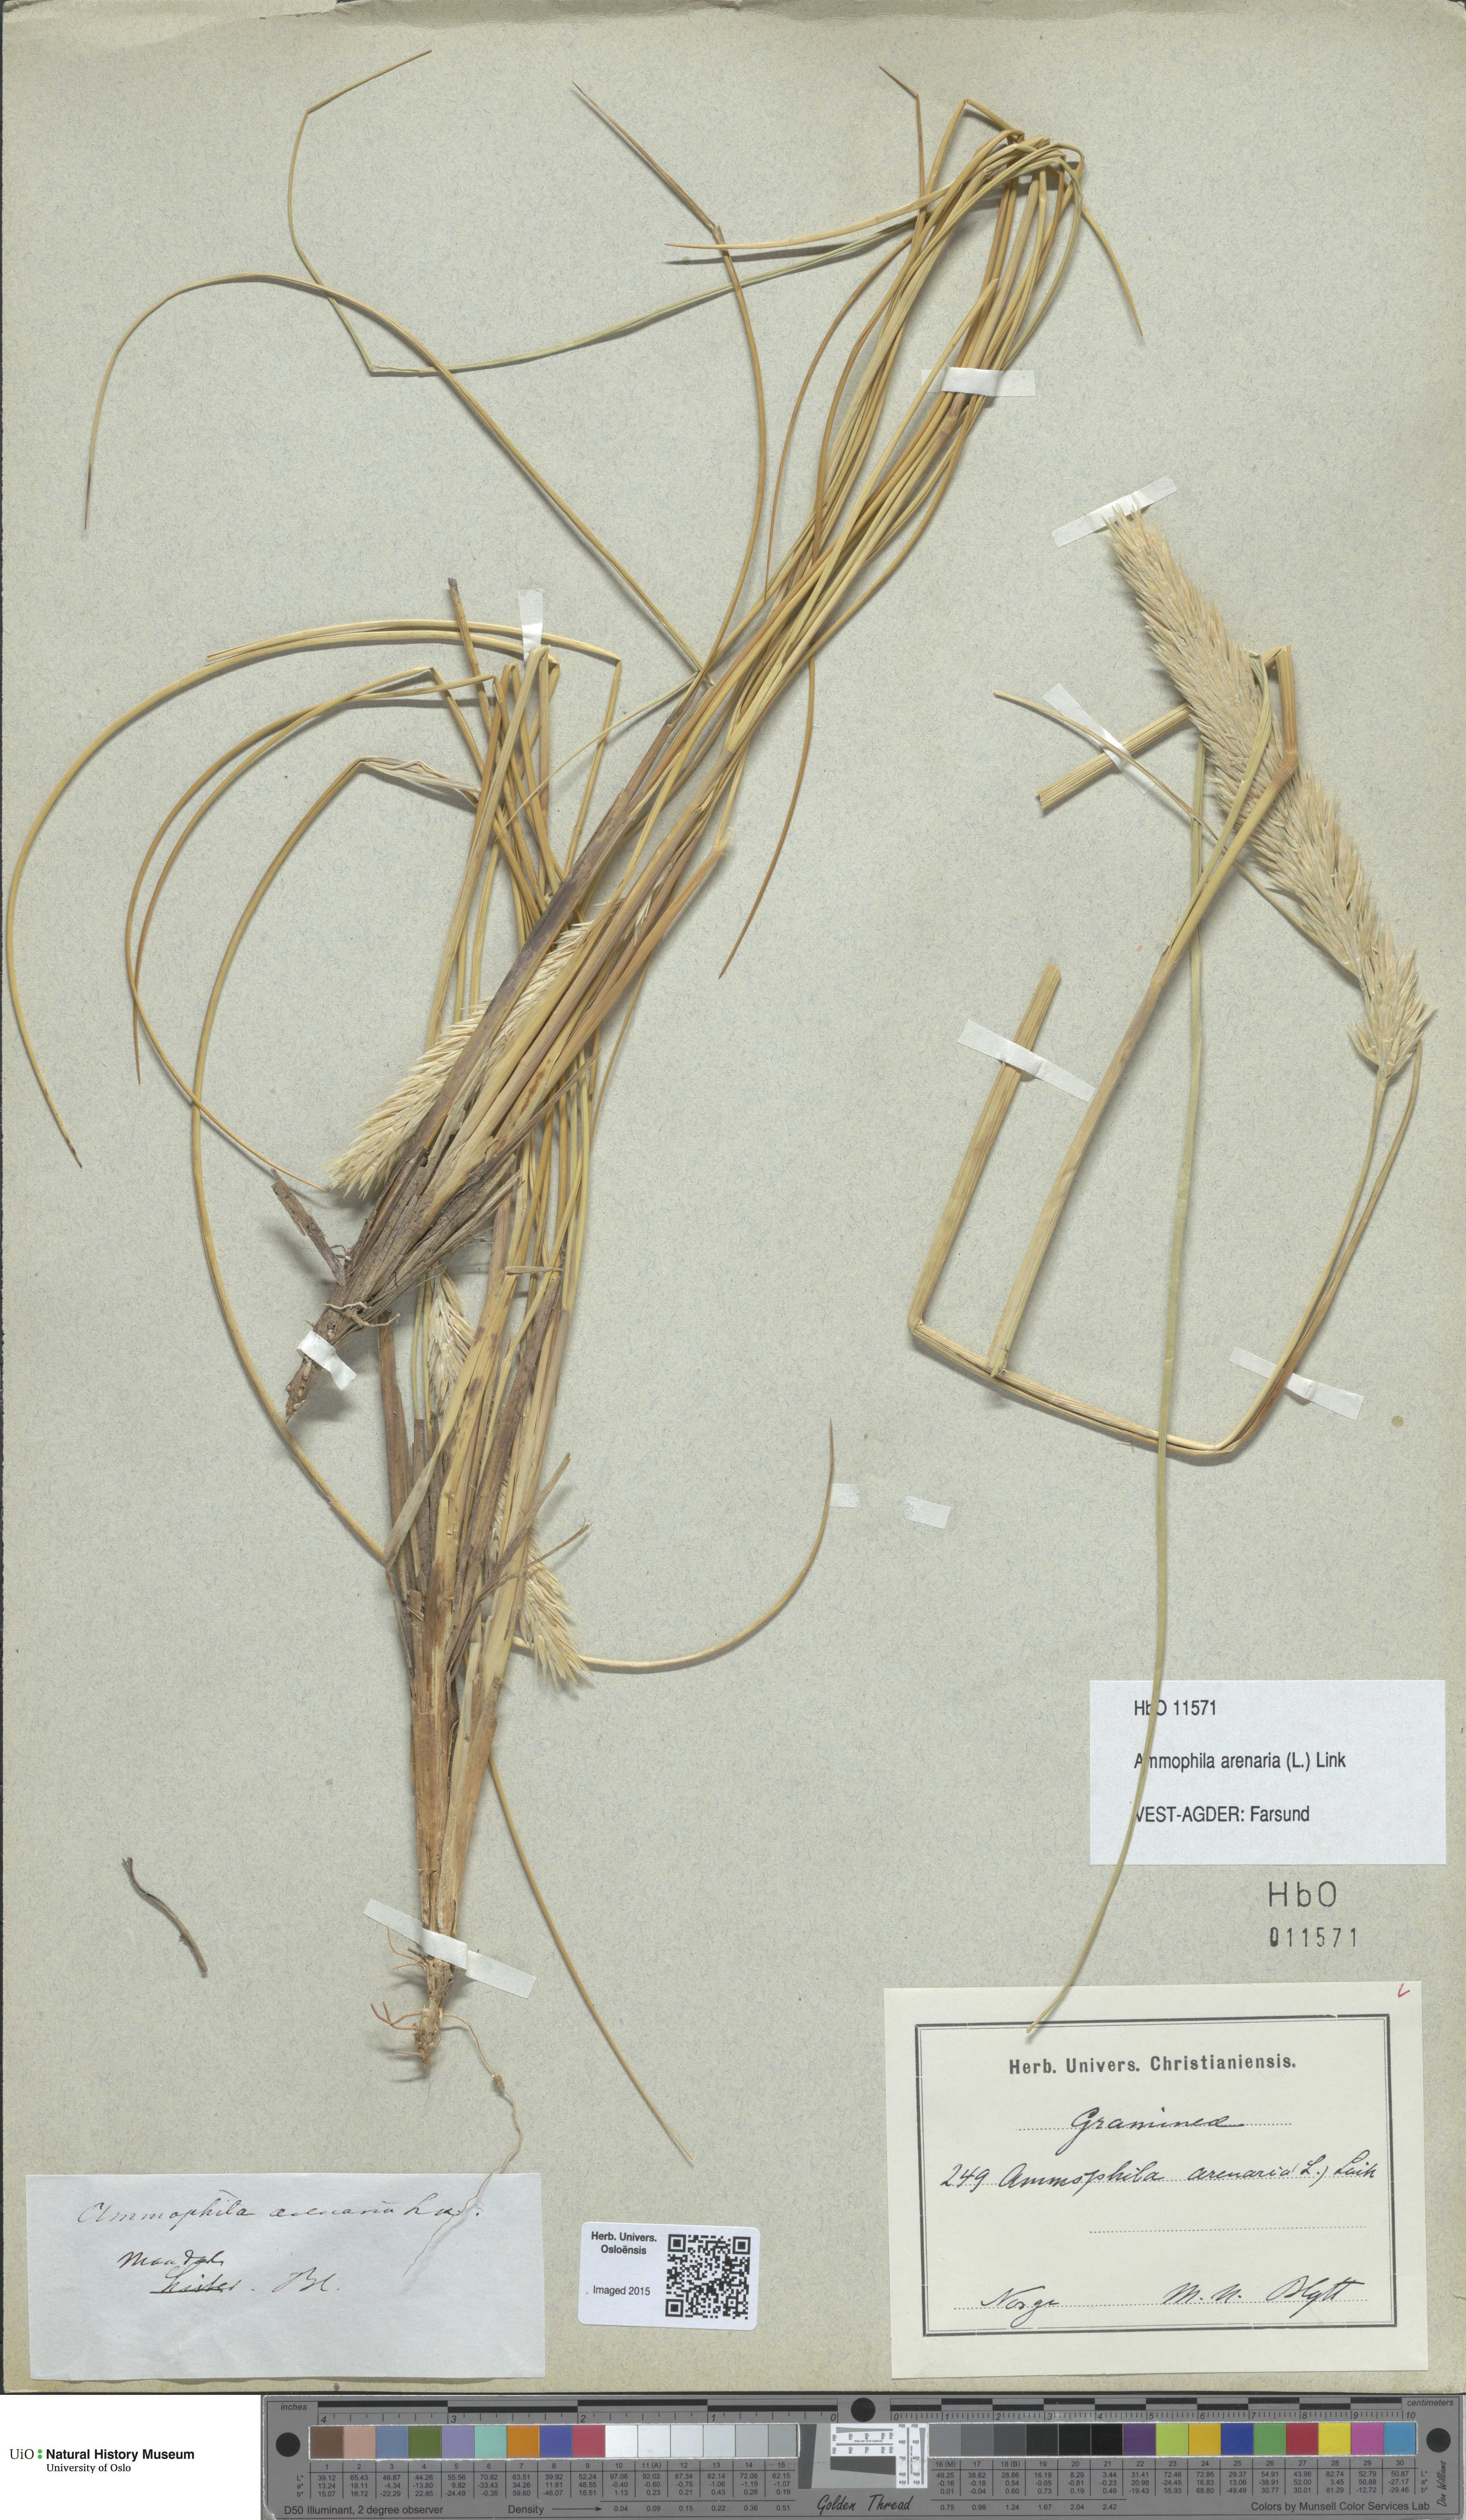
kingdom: Plantae
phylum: Tracheophyta
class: Liliopsida
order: Poales
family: Poaceae
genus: Calamagrostis
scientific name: Calamagrostis arenaria
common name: European beachgrass
